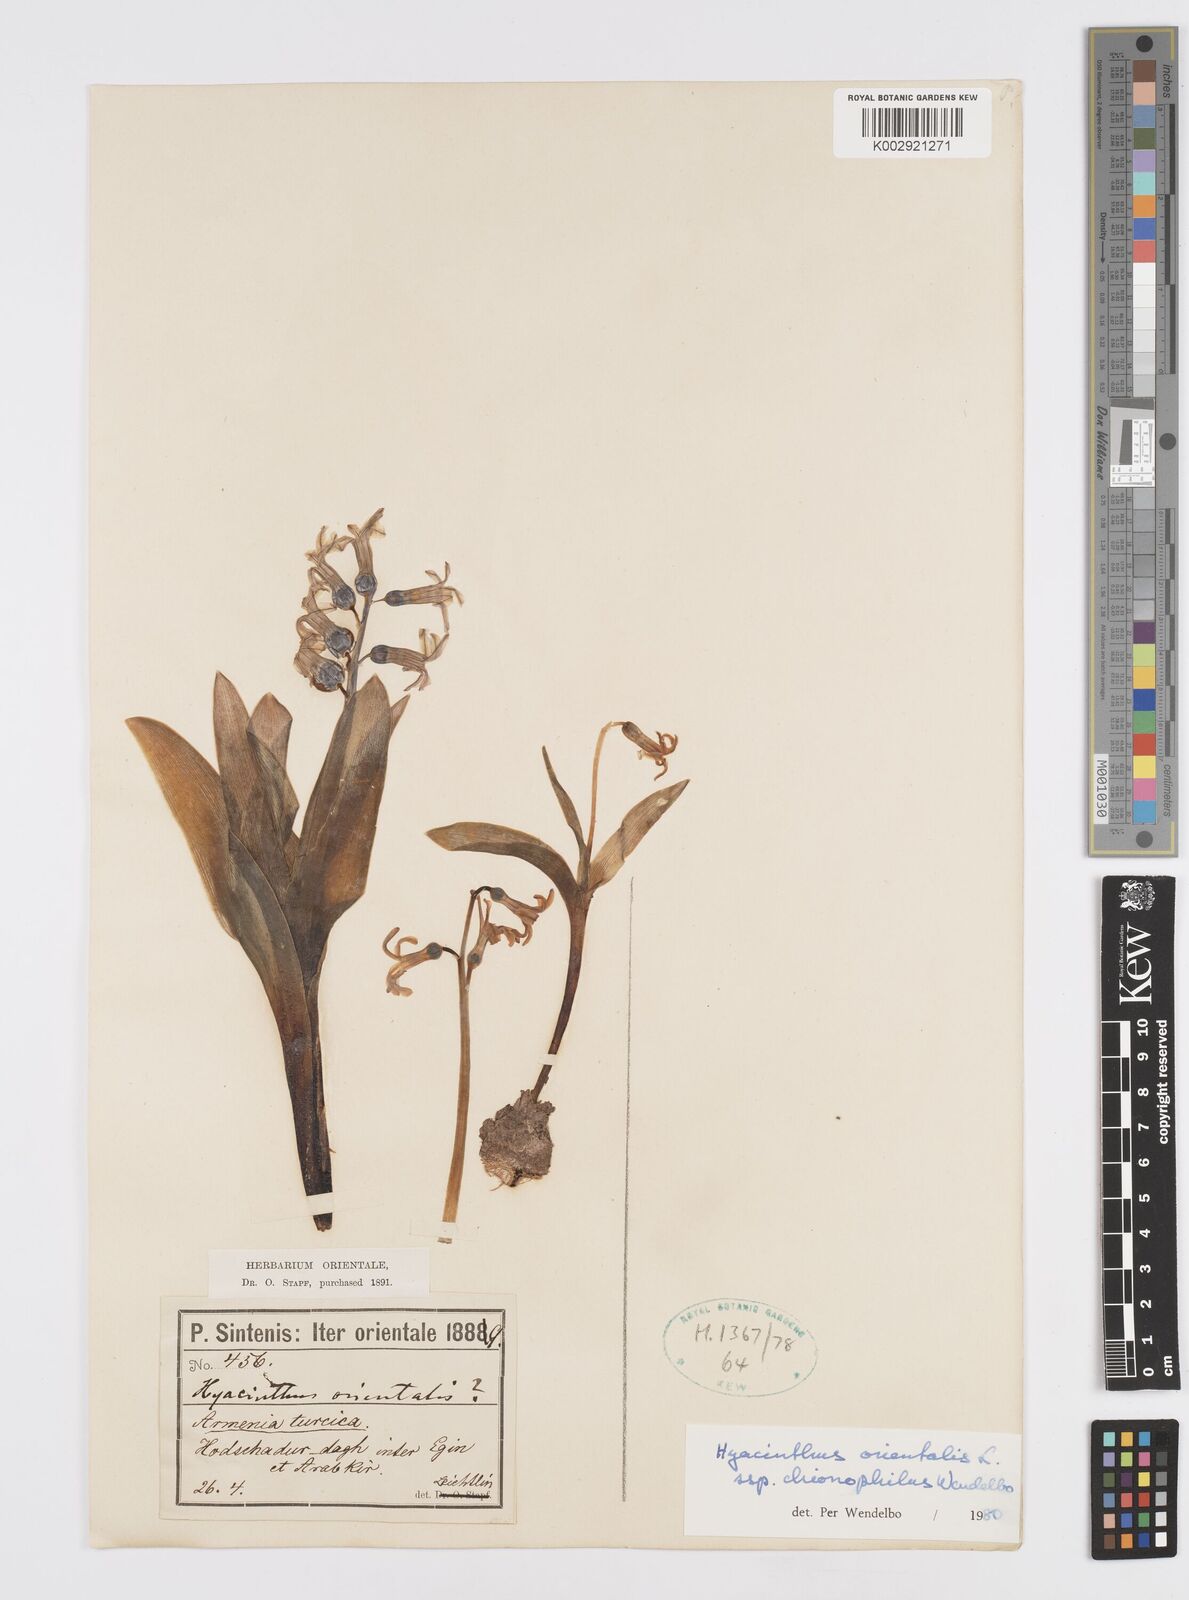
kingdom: Plantae
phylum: Tracheophyta
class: Liliopsida
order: Asparagales
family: Asparagaceae
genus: Hyacinthus
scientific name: Hyacinthus orientalis
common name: Hyacinth
